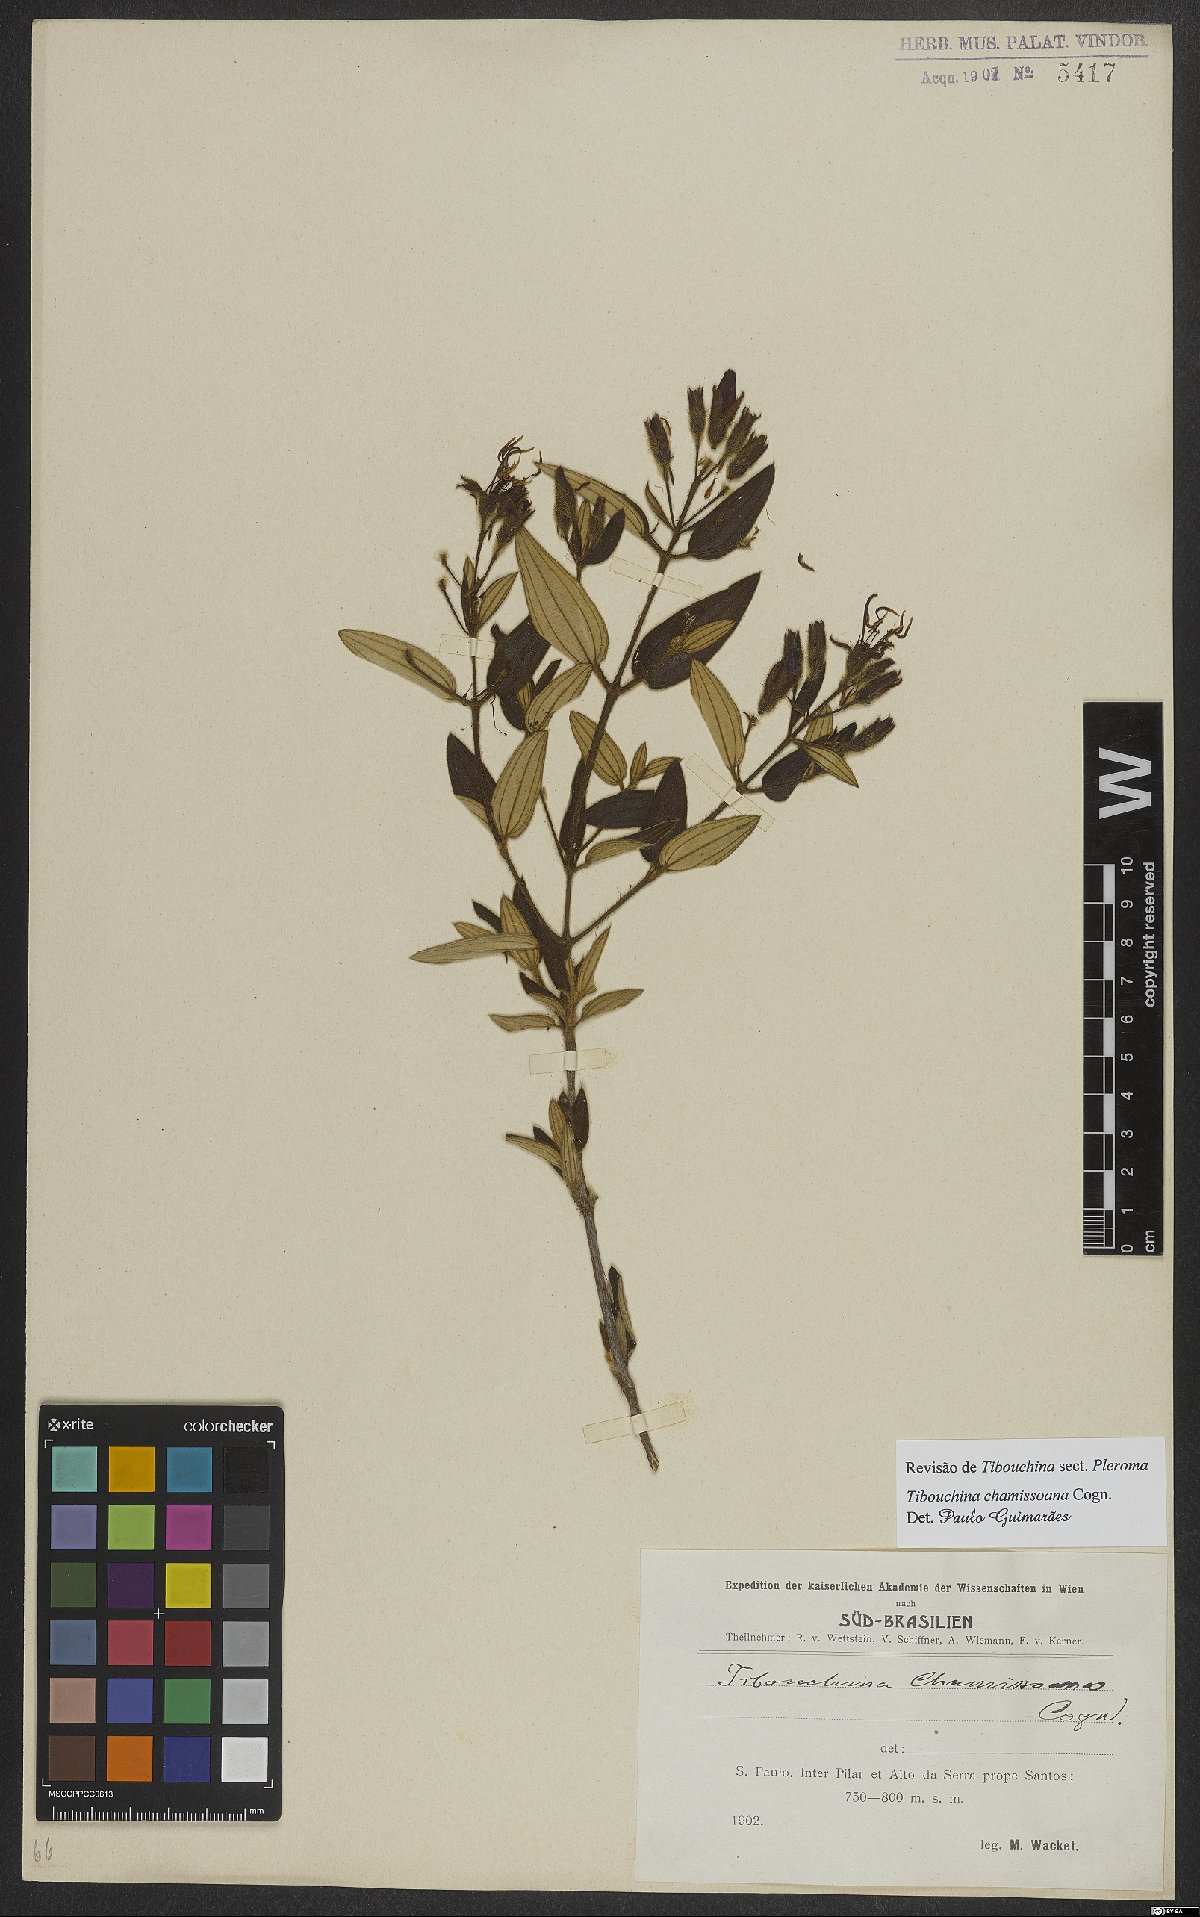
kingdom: Plantae
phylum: Tracheophyta
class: Magnoliopsida
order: Myrtales
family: Melastomataceae
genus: Pleroma
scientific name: Pleroma molle
